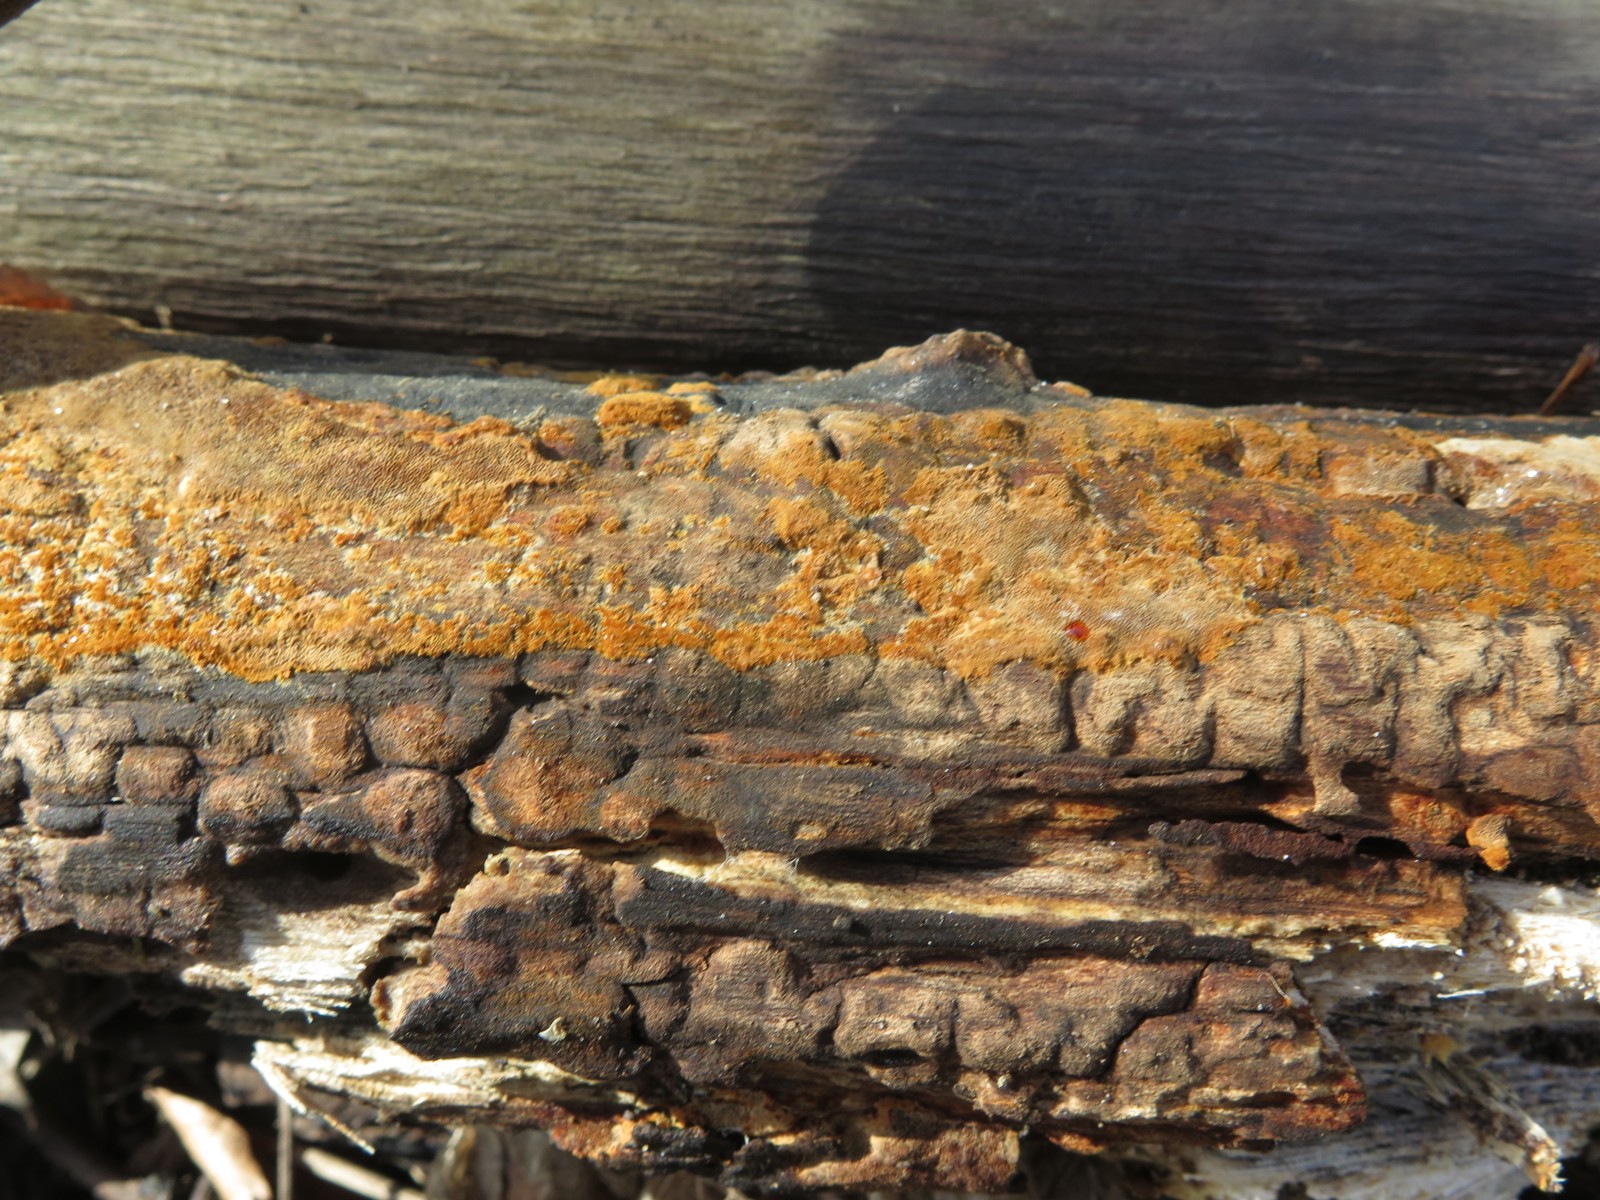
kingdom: Fungi
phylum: Basidiomycota
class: Agaricomycetes
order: Hymenochaetales
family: Hymenochaetaceae
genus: Fuscoporia
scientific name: Fuscoporia ferrea
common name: skorpe-ildporesvamp
